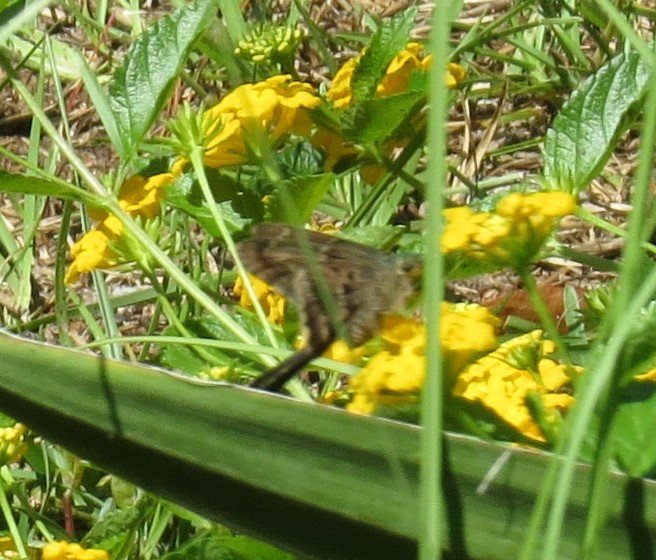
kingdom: Animalia
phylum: Arthropoda
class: Insecta
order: Lepidoptera
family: Hesperiidae
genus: Urbanus
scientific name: Urbanus proteus
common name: Long-tailed Skipper
